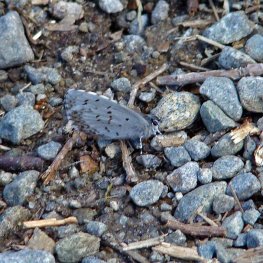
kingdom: Animalia
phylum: Arthropoda
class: Insecta
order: Lepidoptera
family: Lycaenidae
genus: Celastrina
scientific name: Celastrina lucia
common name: Northern Spring Azure
